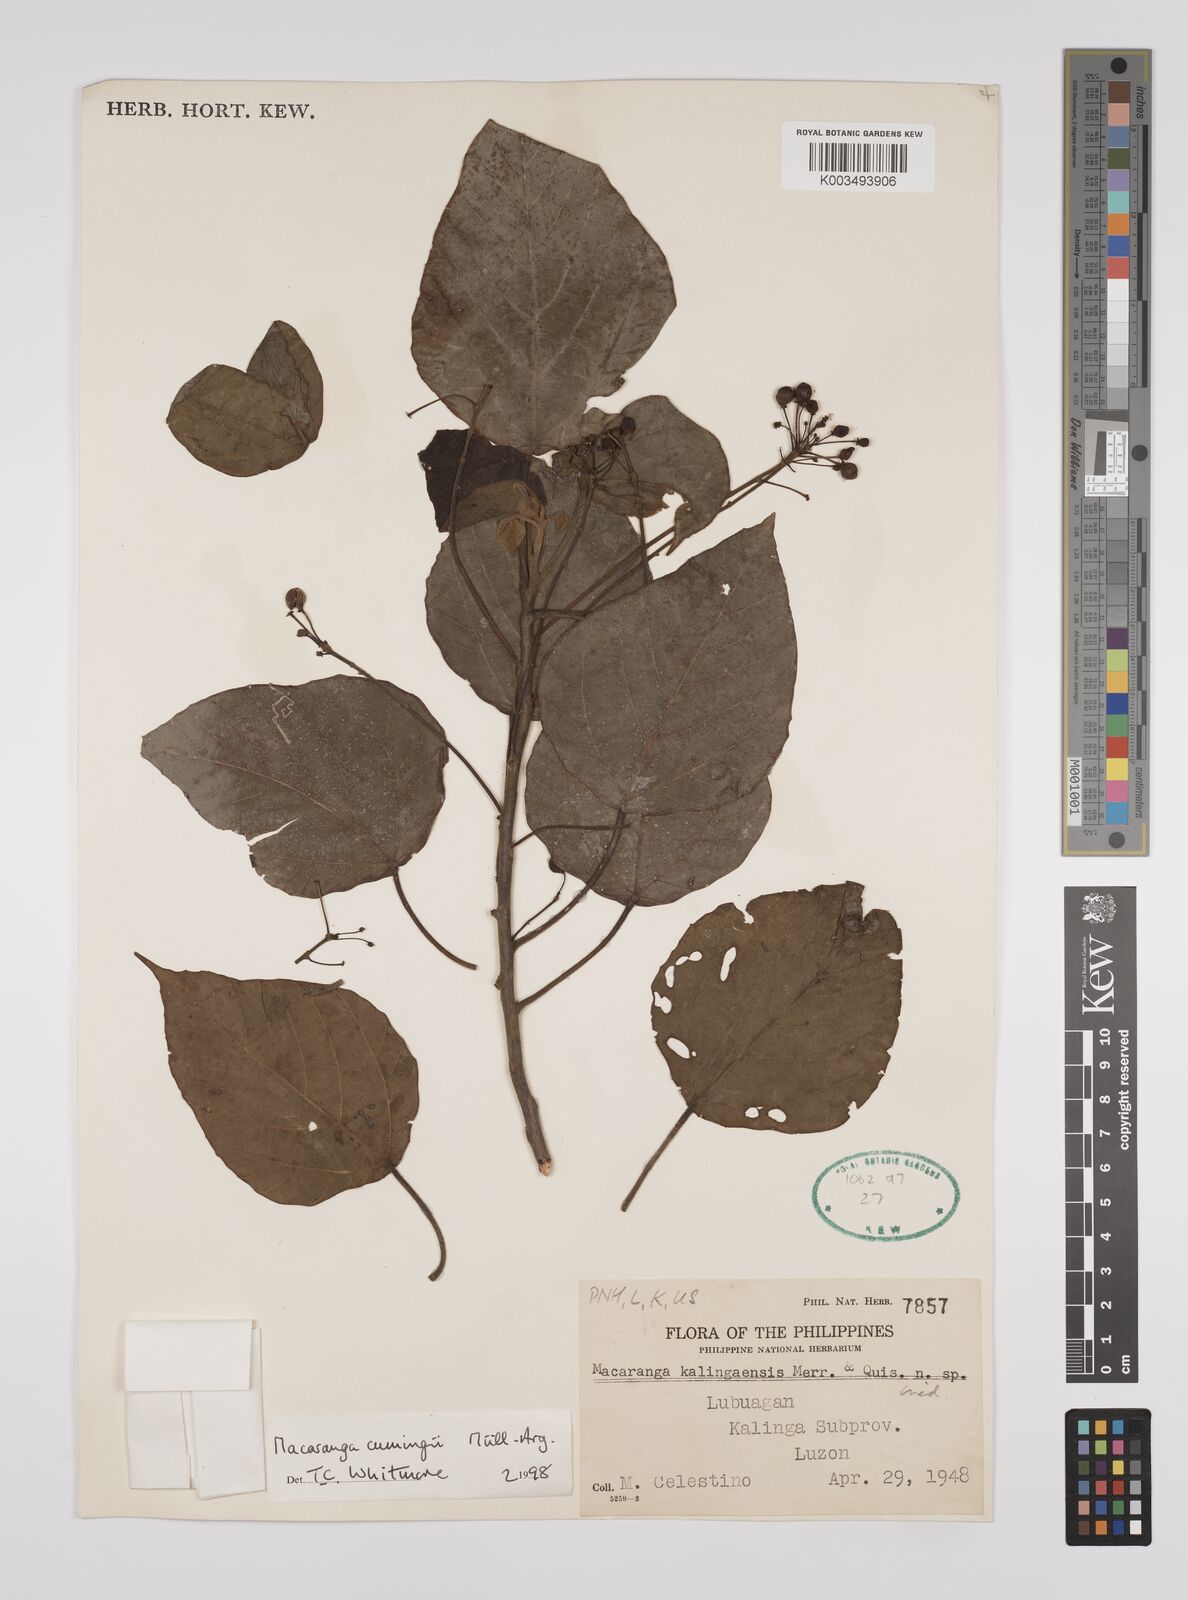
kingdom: Plantae
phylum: Tracheophyta
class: Magnoliopsida
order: Malpighiales
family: Euphorbiaceae
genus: Macaranga
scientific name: Macaranga cumingii
